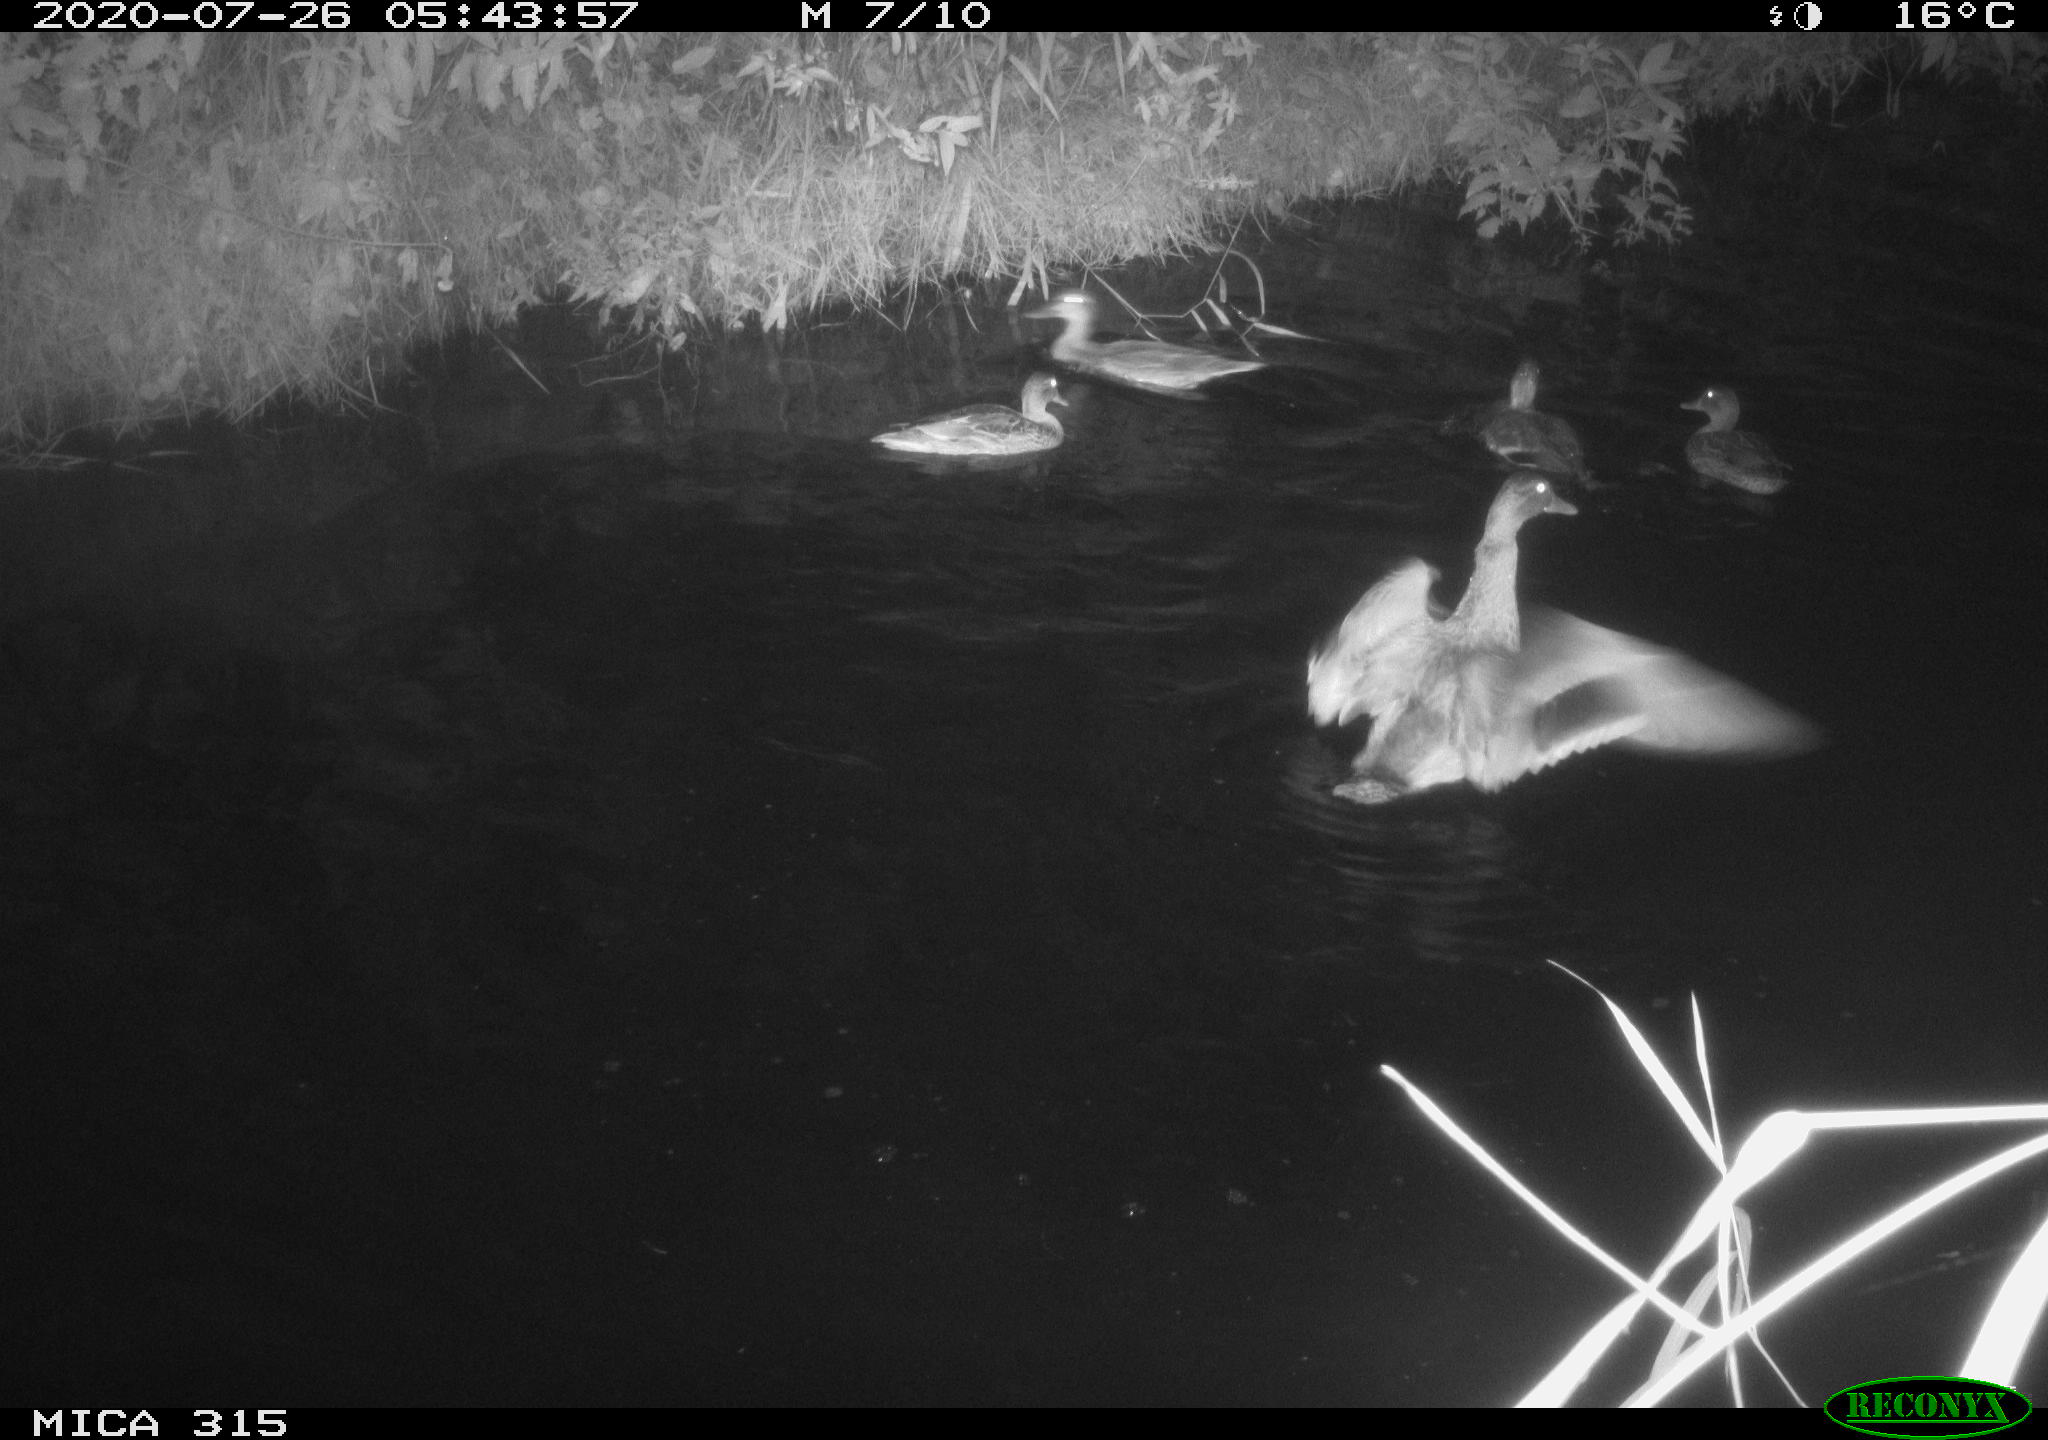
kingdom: Animalia
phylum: Chordata
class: Aves
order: Anseriformes
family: Anatidae
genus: Anas
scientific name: Anas platyrhynchos
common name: Mallard
